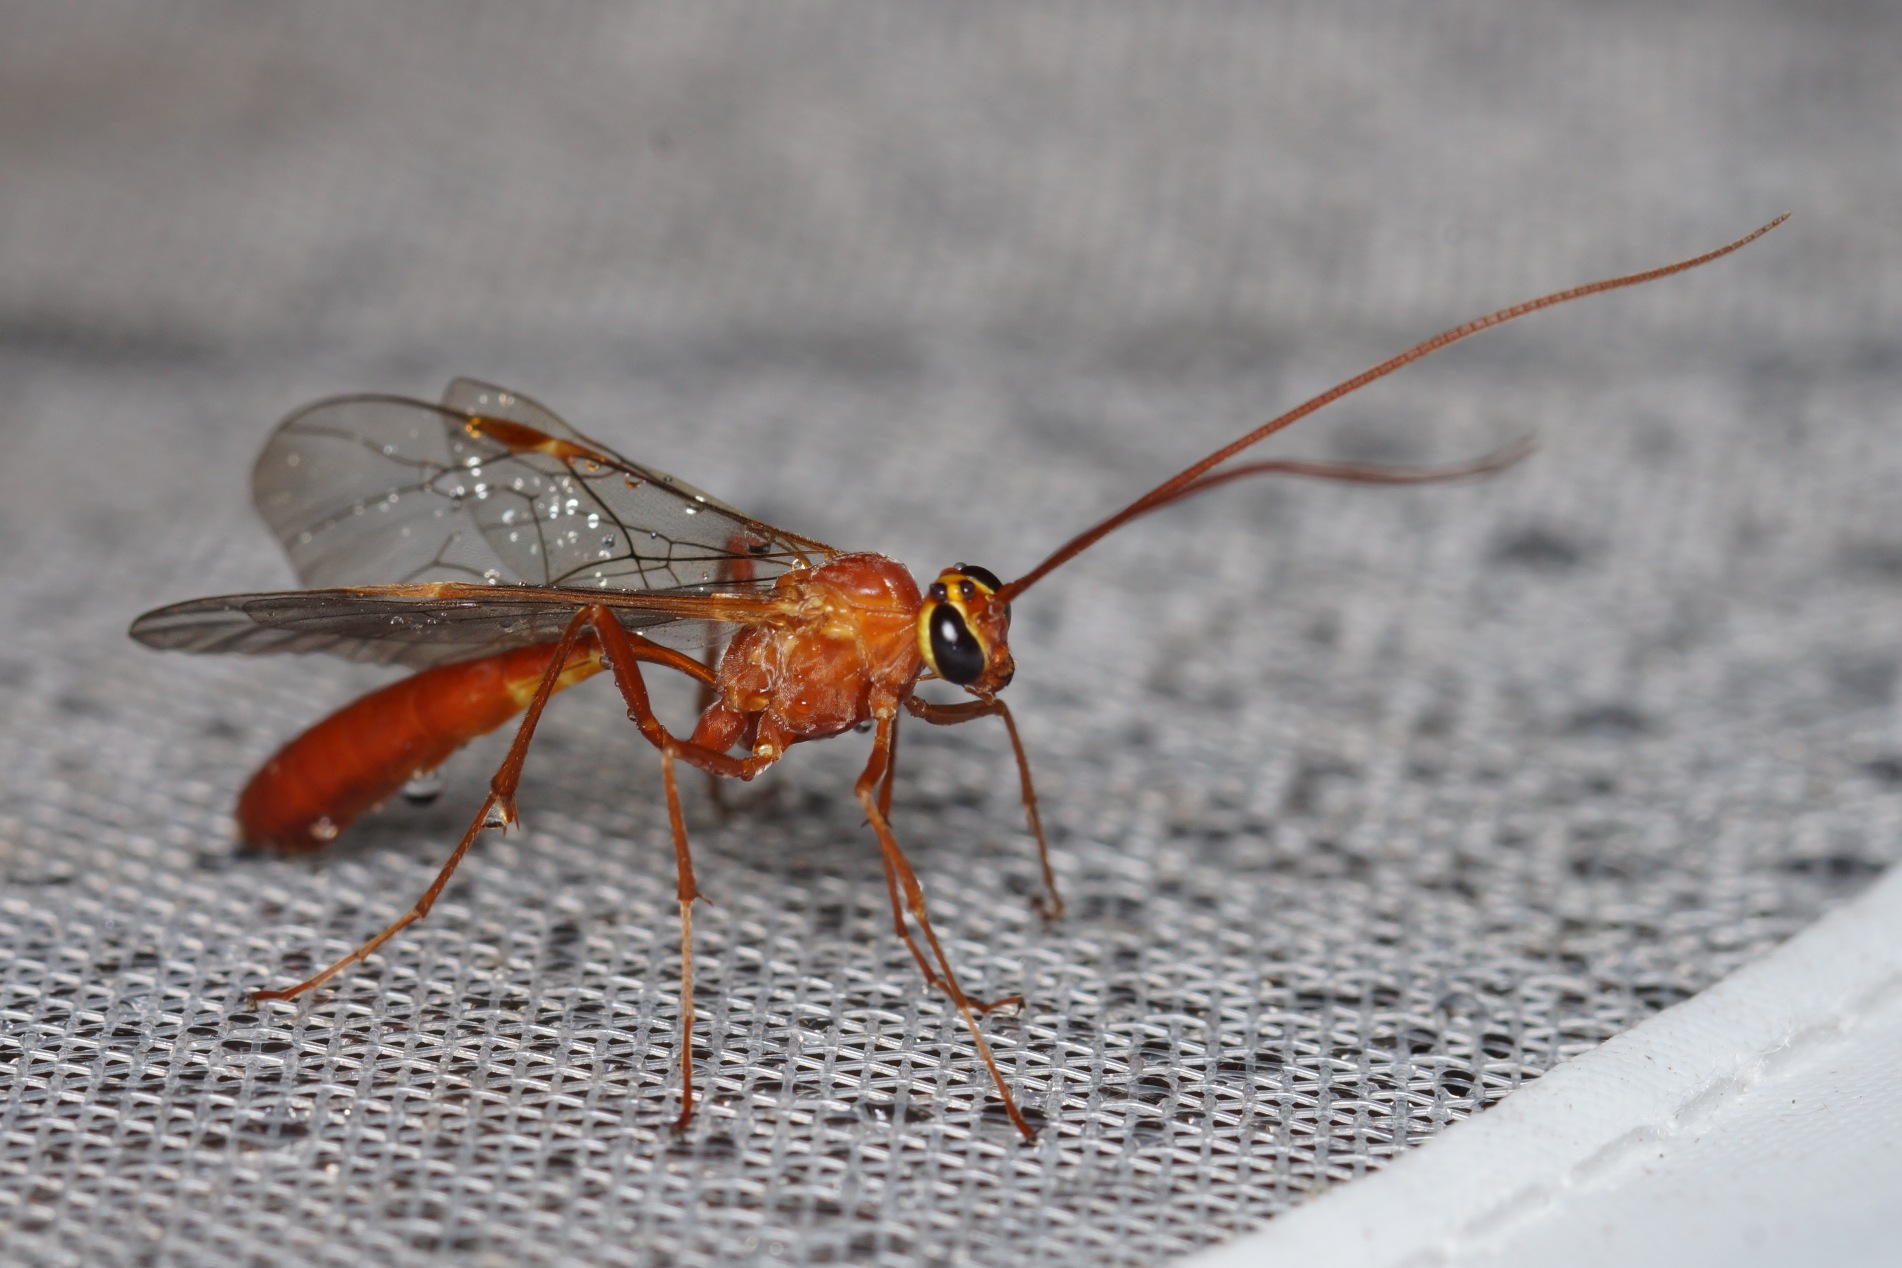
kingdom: Animalia
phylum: Arthropoda
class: Insecta
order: Hymenoptera
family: Ichneumonidae
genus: Enicospilus
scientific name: Enicospilus
